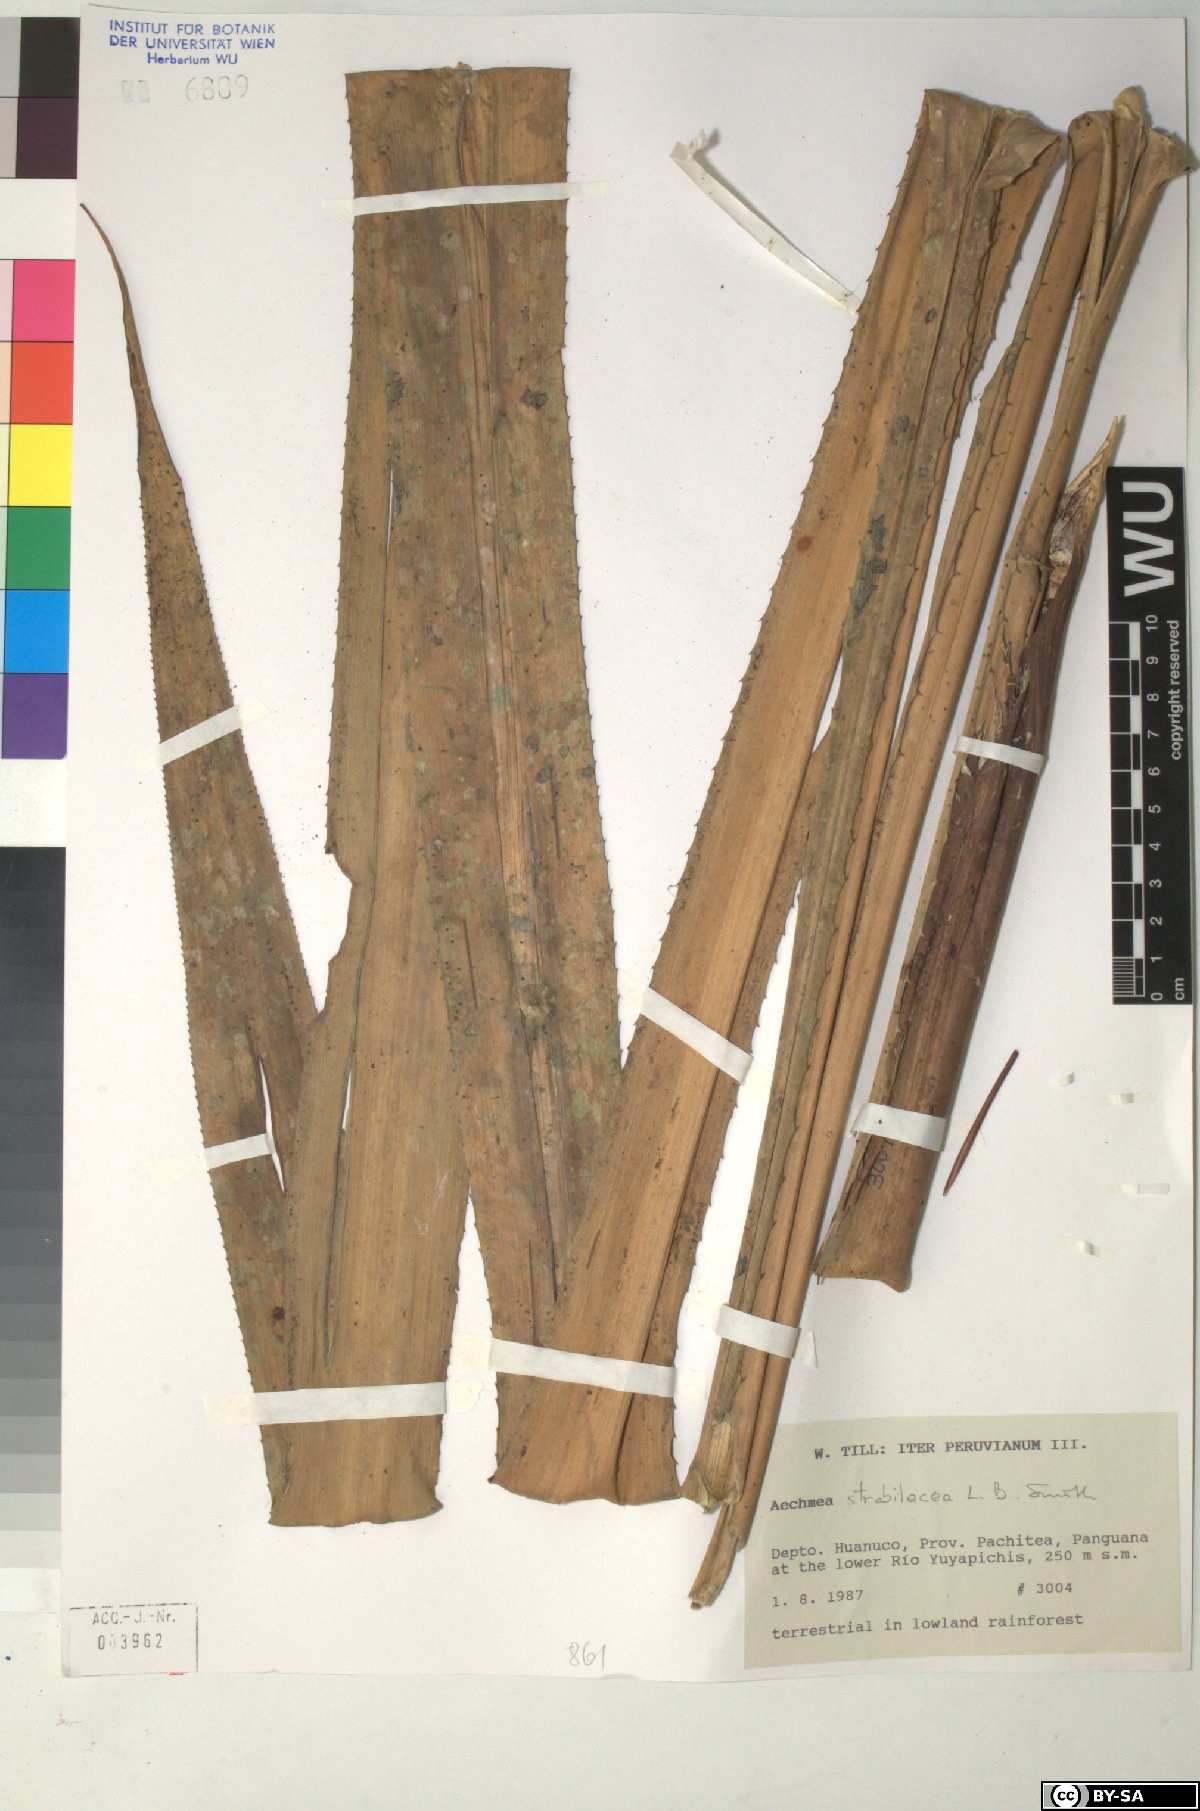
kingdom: Plantae
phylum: Tracheophyta
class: Liliopsida
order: Poales
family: Bromeliaceae
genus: Aechmea
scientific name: Aechmea strobilacea
